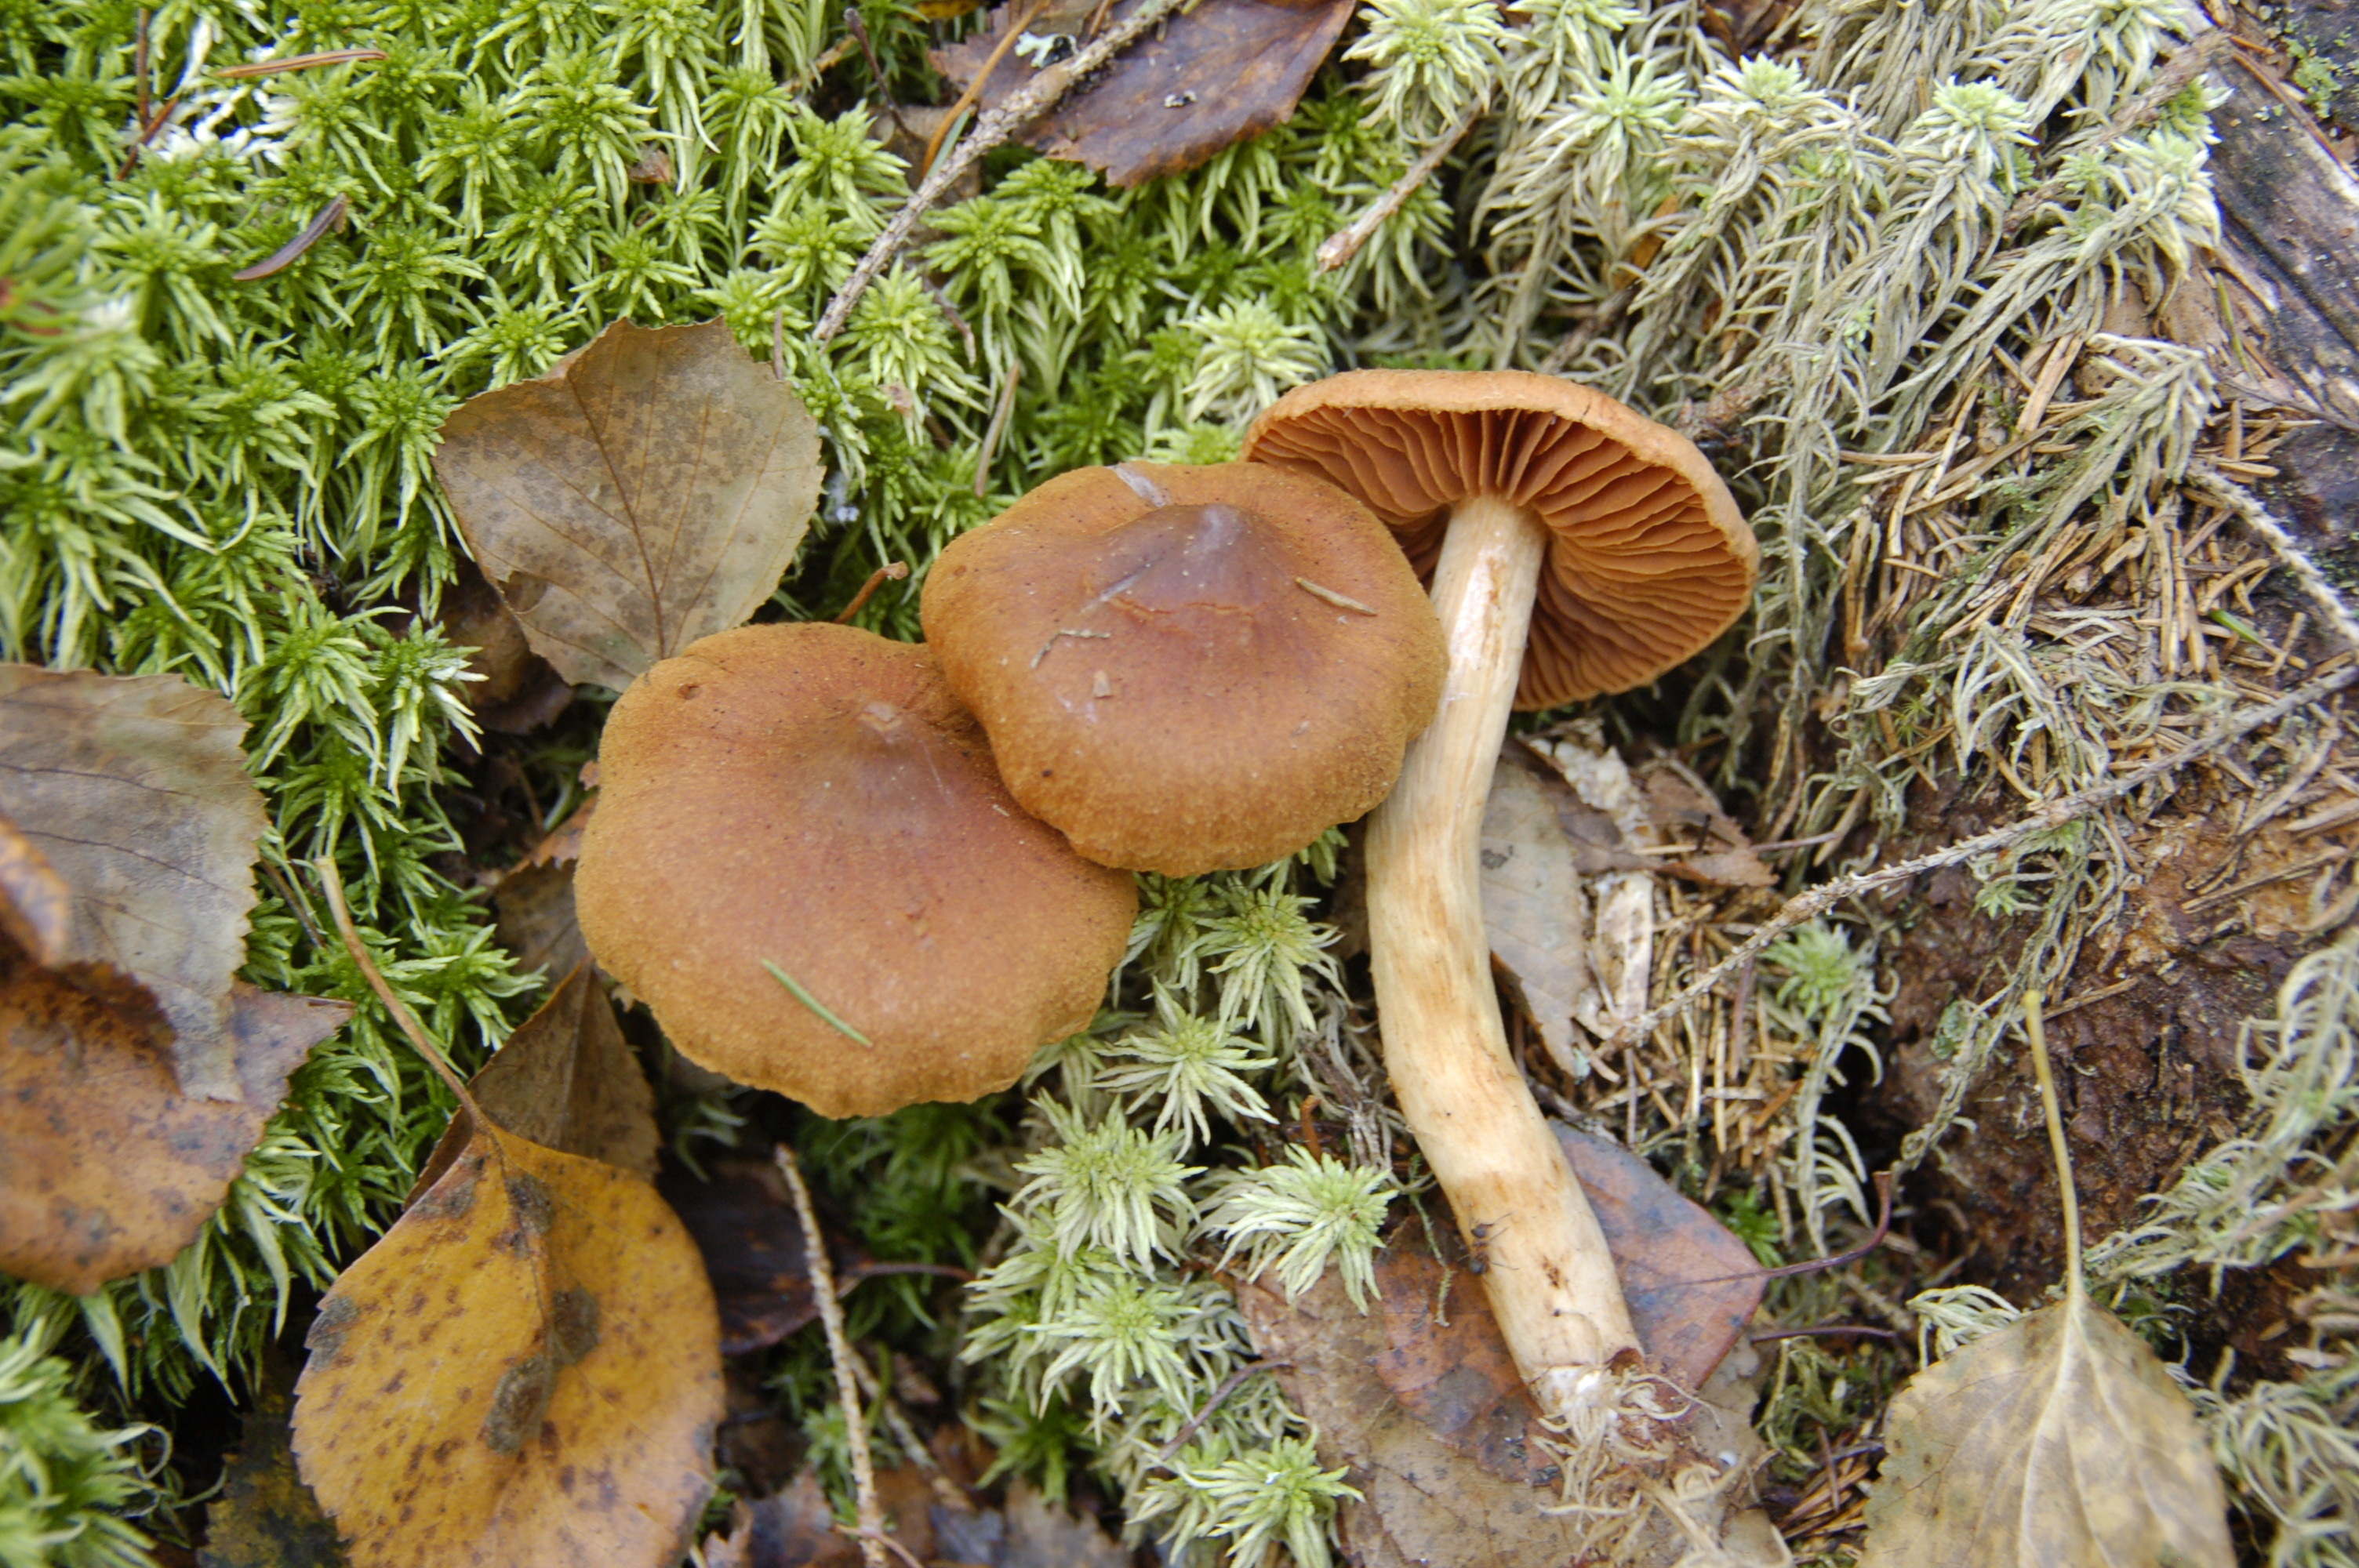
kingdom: Fungi
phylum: Basidiomycota
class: Agaricomycetes
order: Agaricales
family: Cortinariaceae
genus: Cortinarius
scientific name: Cortinarius rubellus
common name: Deadly webcap
